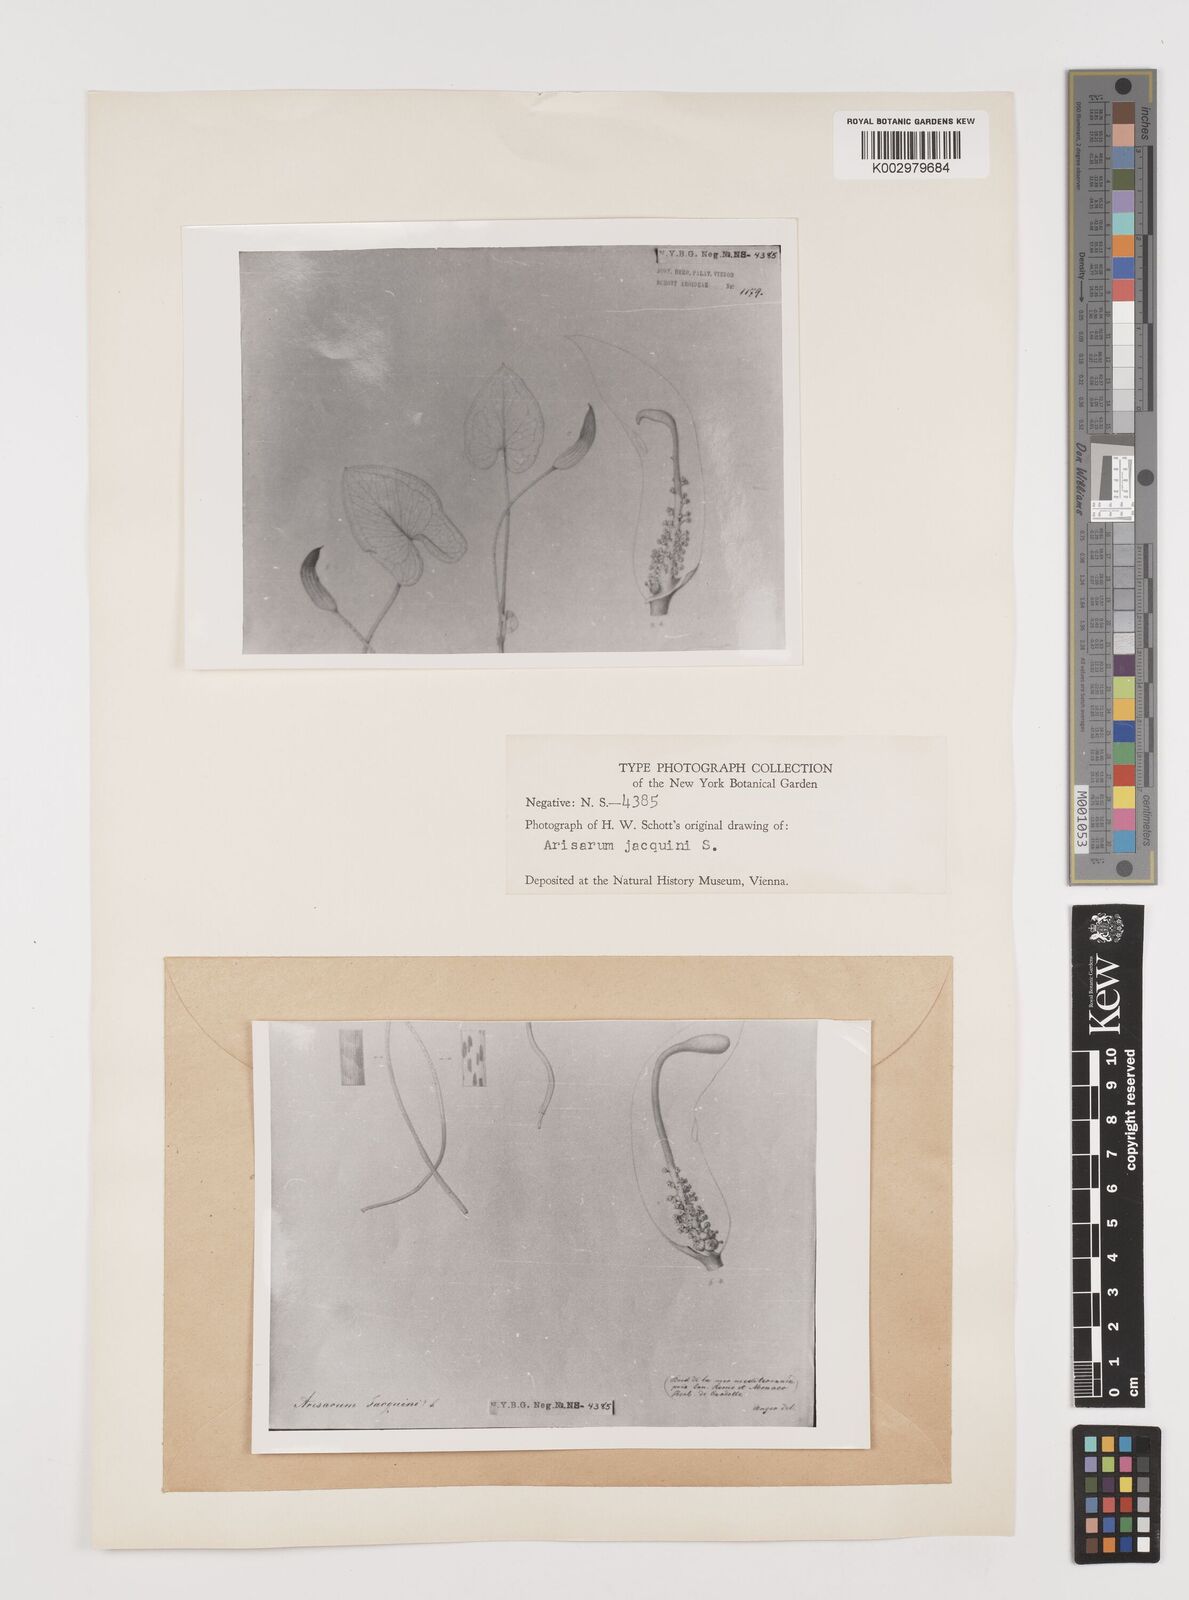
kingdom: Plantae
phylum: Tracheophyta
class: Liliopsida
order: Alismatales
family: Araceae
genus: Arisarum
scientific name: Arisarum simorrhinum
